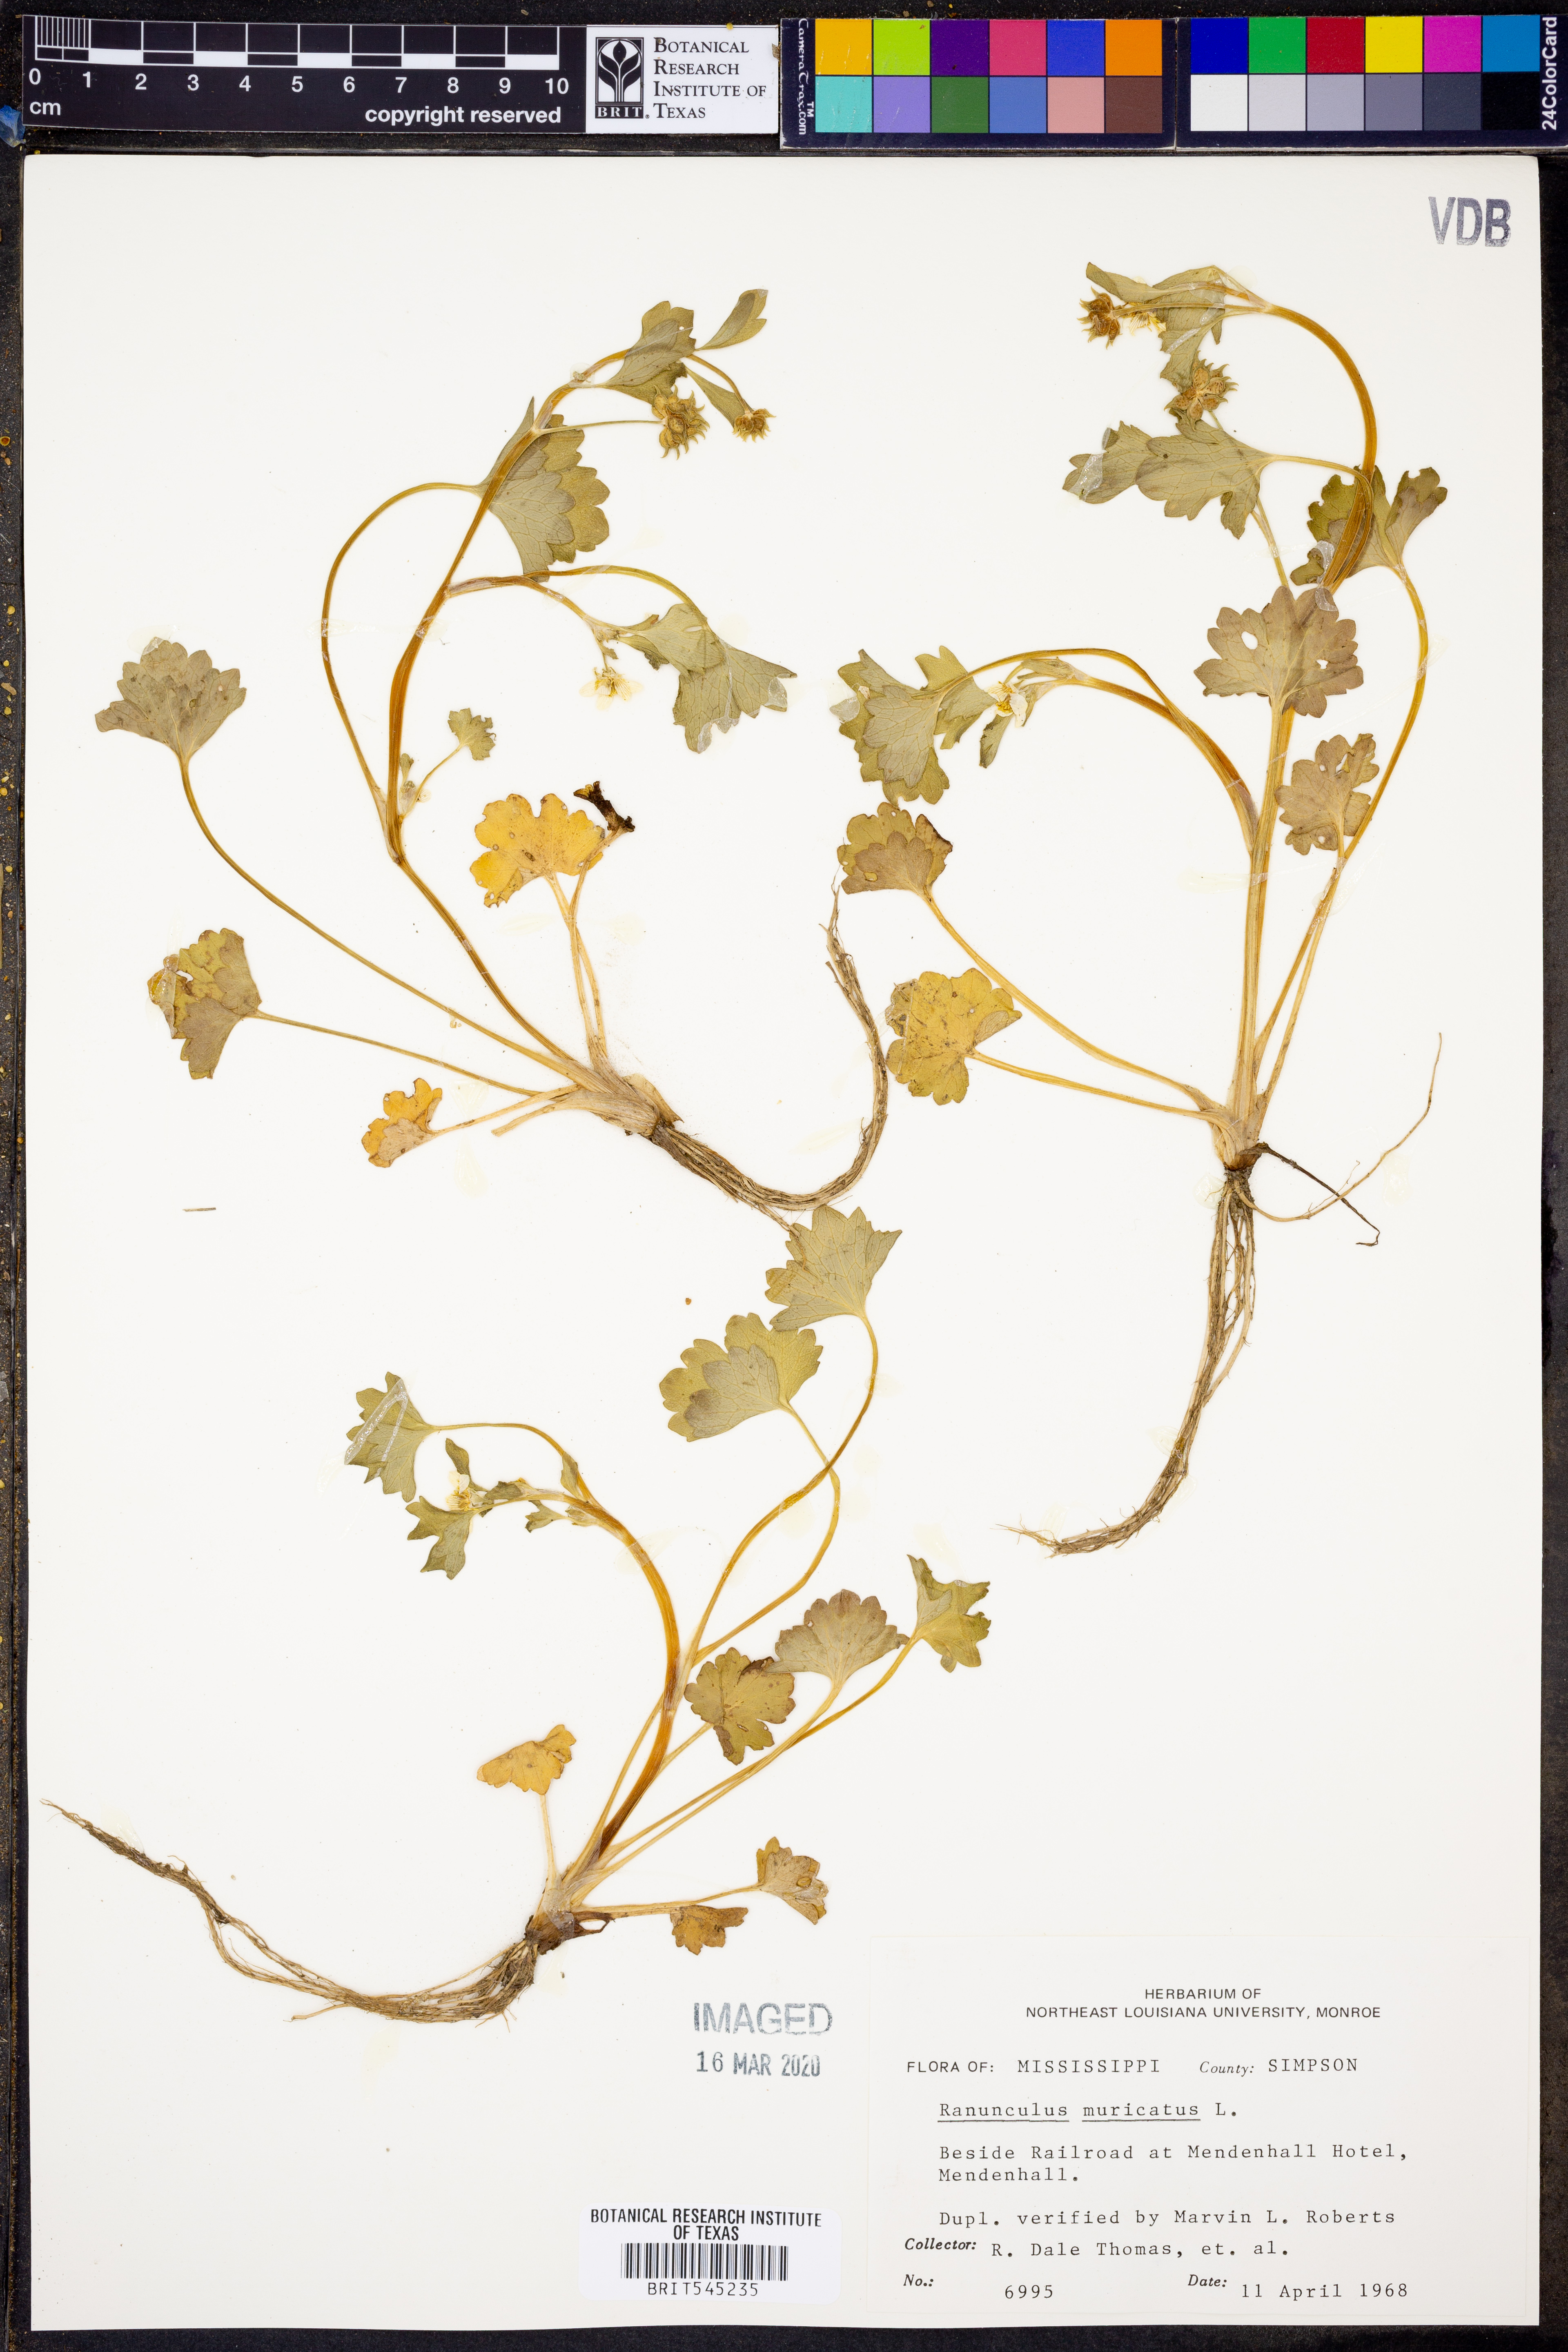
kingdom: Plantae
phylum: Tracheophyta
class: Magnoliopsida
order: Ranunculales
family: Ranunculaceae
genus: Ranunculus
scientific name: Ranunculus muricatus
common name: Rough-fruited buttercup
